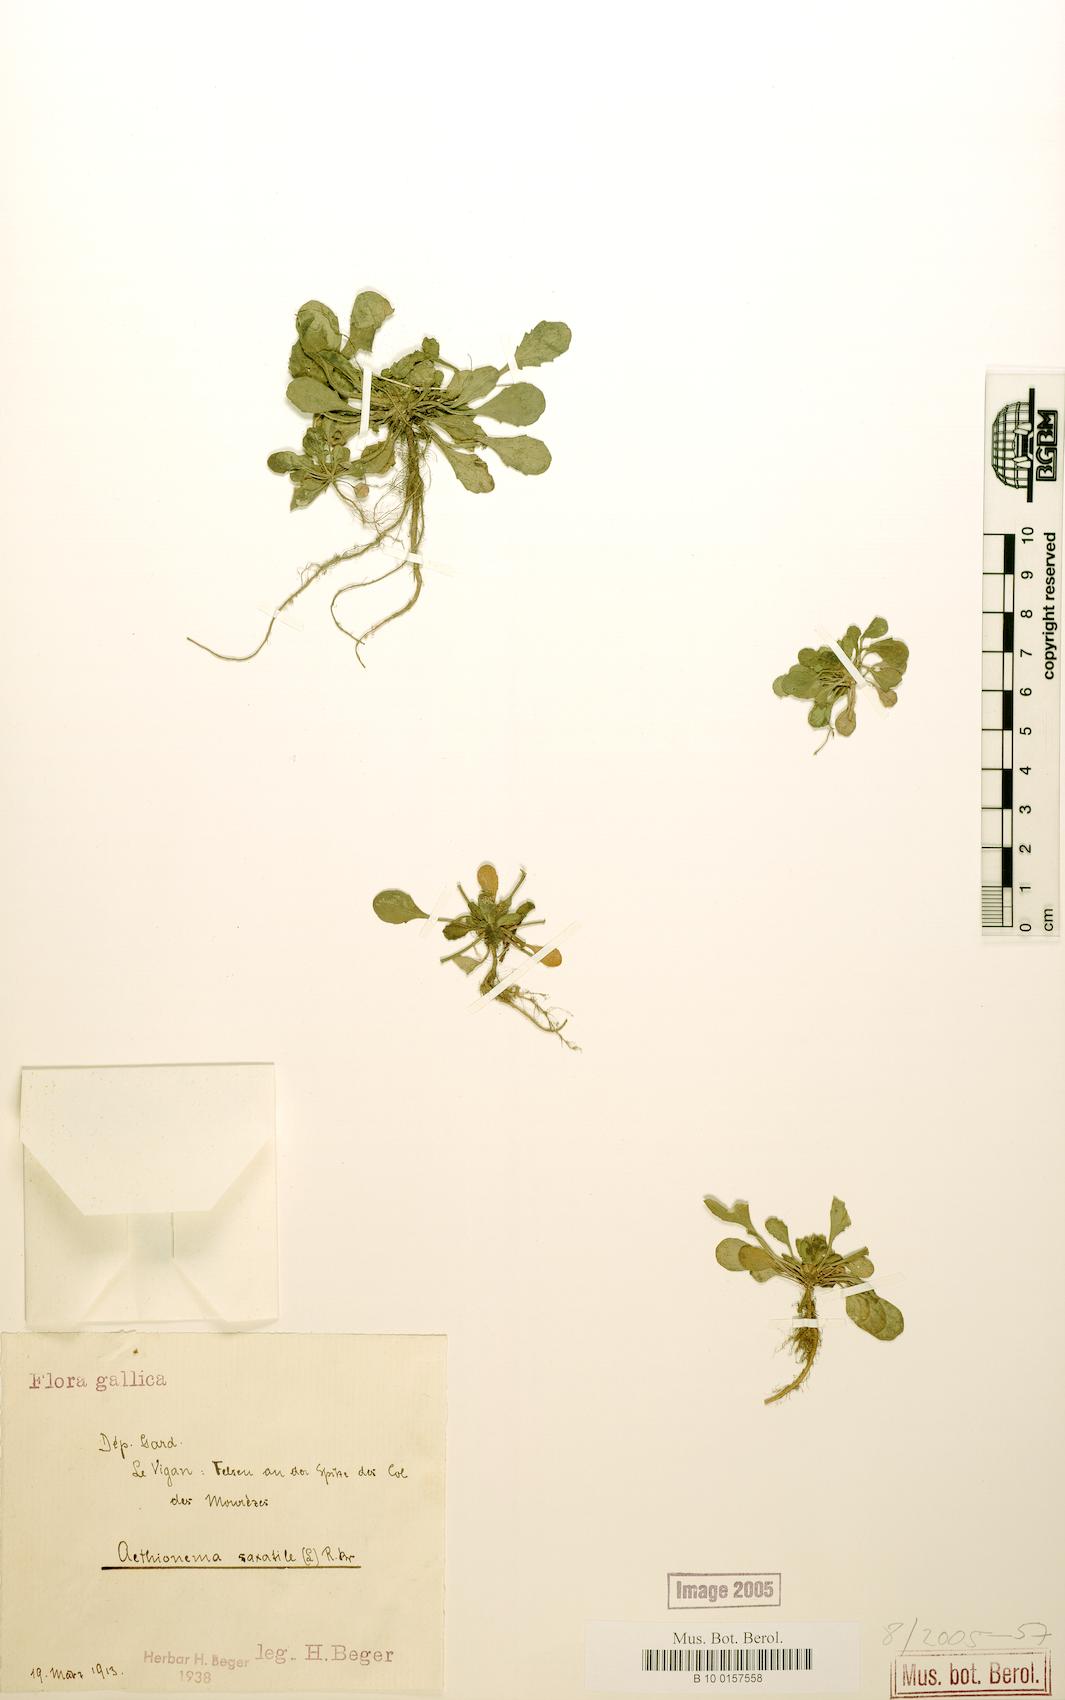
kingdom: Plantae
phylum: Tracheophyta
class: Magnoliopsida
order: Brassicales
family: Brassicaceae
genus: Aethionema
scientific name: Aethionema saxatile
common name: Burnt candytuft
